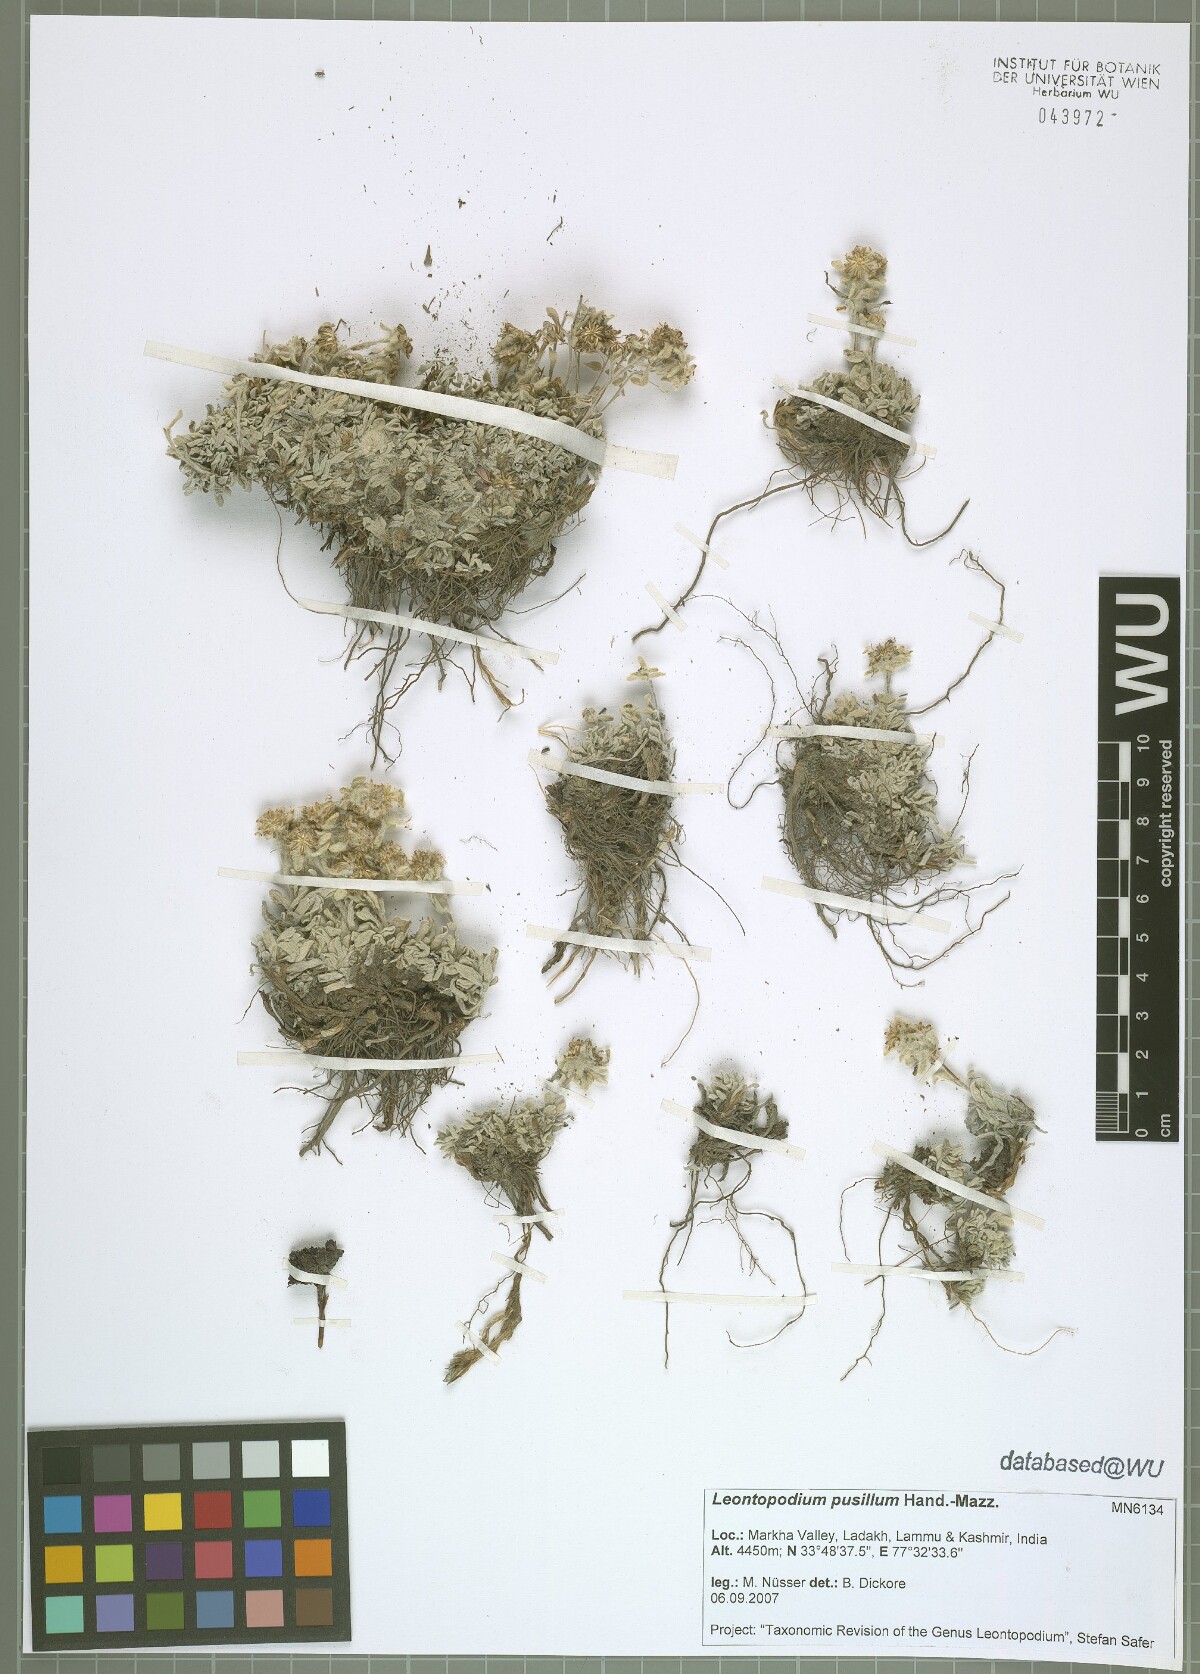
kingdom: Plantae
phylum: Tracheophyta
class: Magnoliopsida
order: Asterales
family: Asteraceae
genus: Leontopodium
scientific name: Leontopodium pusillum
